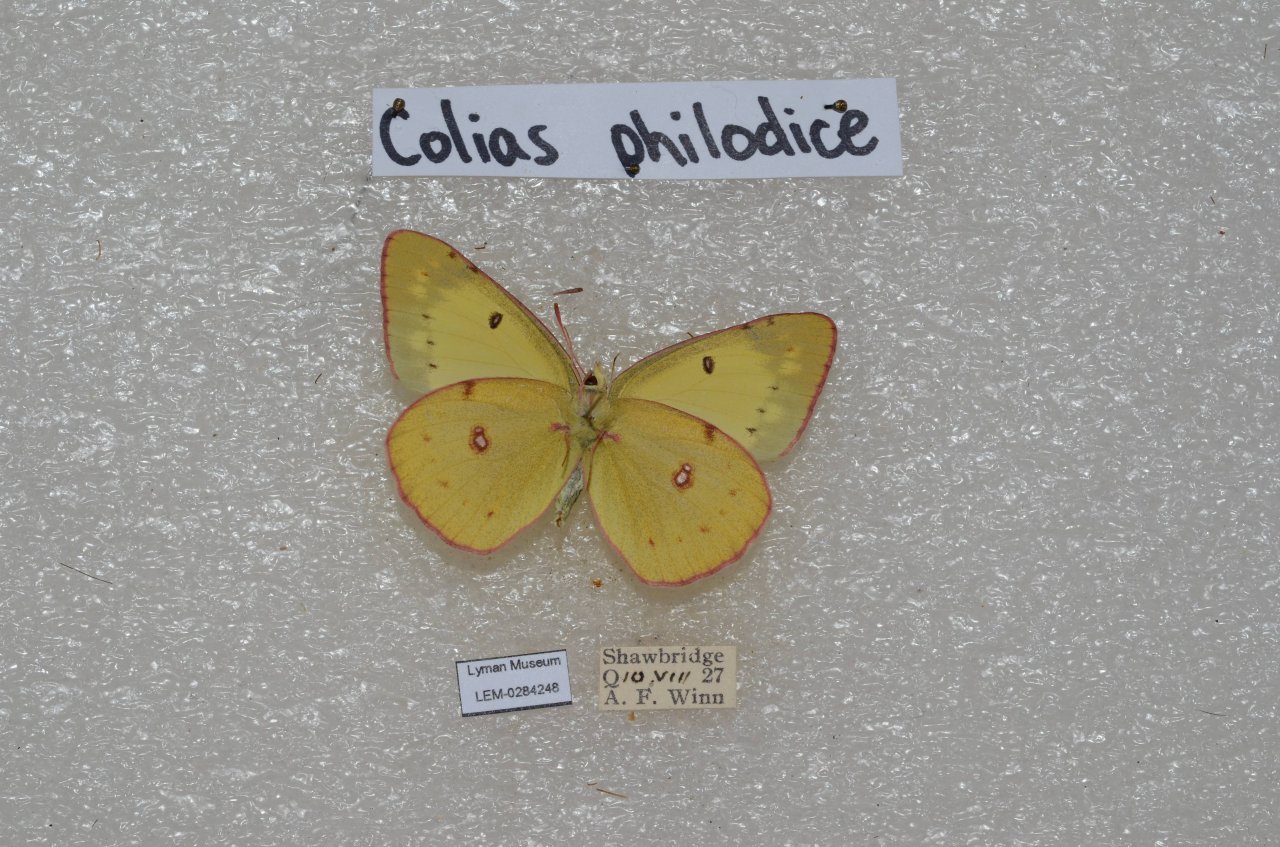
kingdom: Animalia
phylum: Arthropoda
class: Insecta
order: Lepidoptera
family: Pieridae
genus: Colias
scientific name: Colias philodice
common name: Clouded Sulphur
